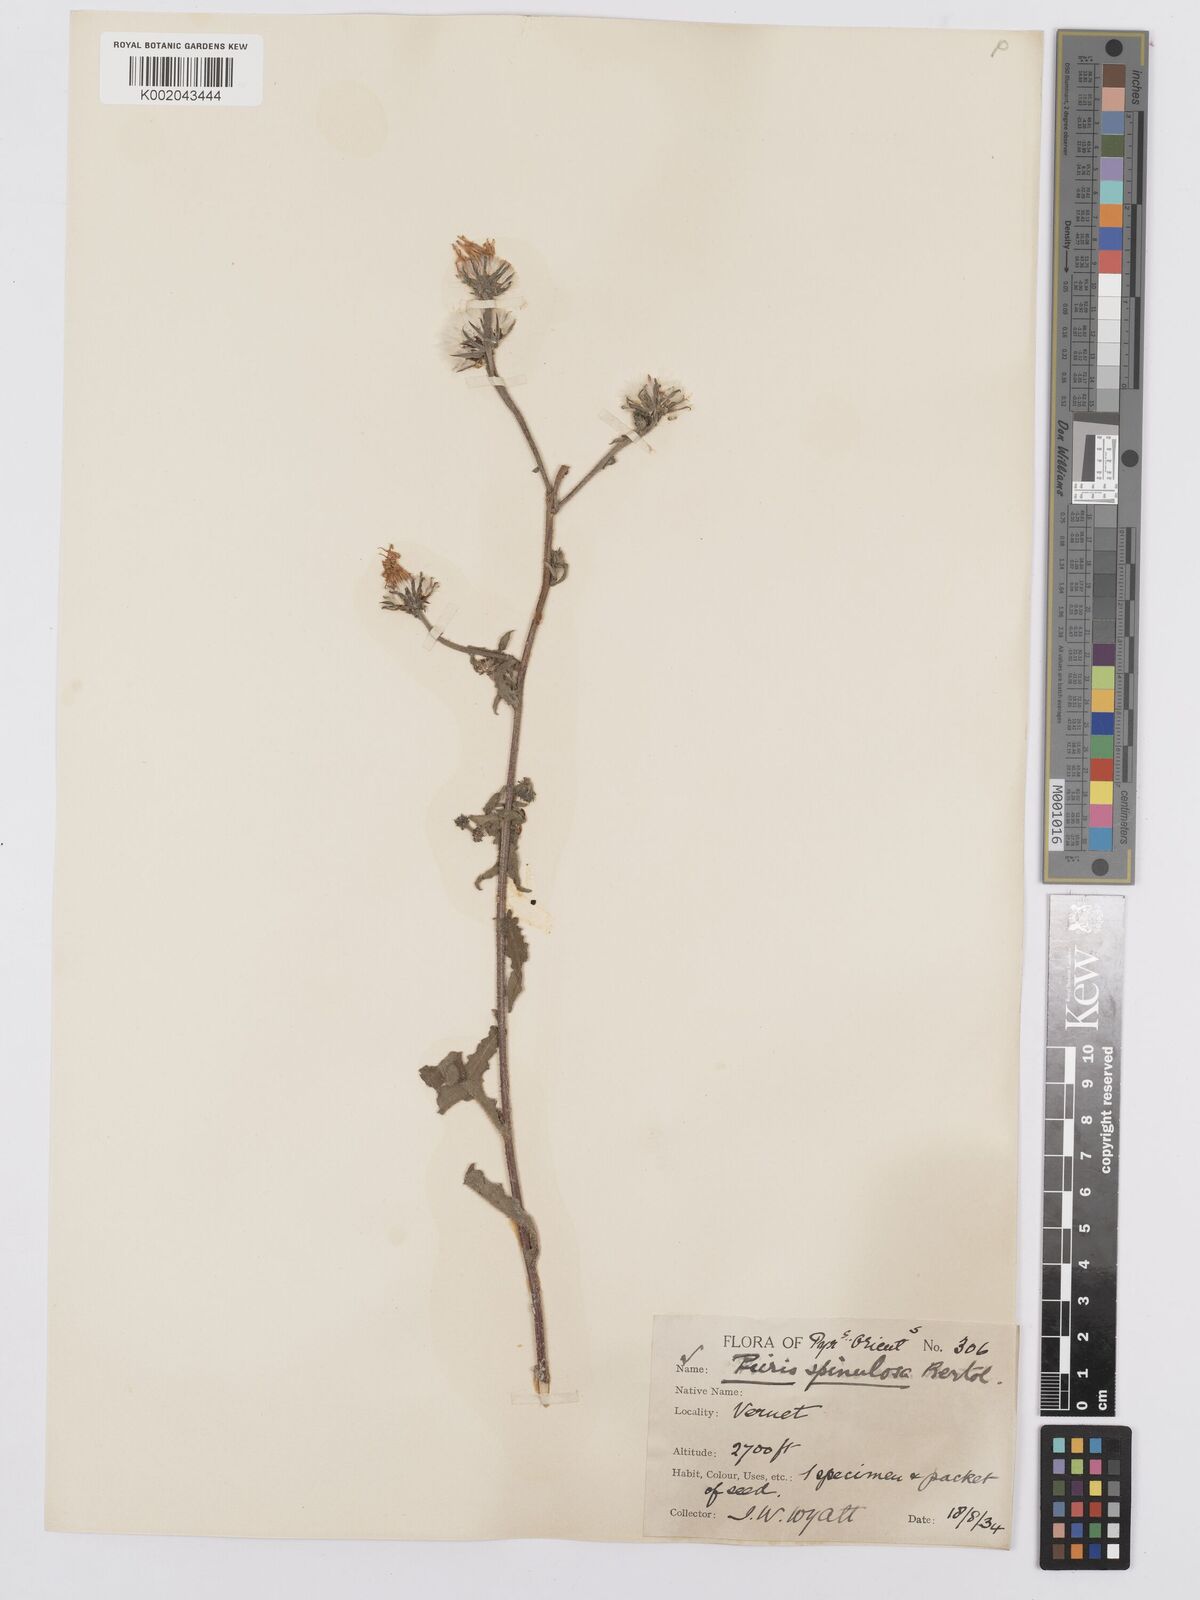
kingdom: Plantae
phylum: Tracheophyta
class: Magnoliopsida
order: Asterales
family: Asteraceae
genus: Picris
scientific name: Picris hieracioides
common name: Hawkweed oxtongue
